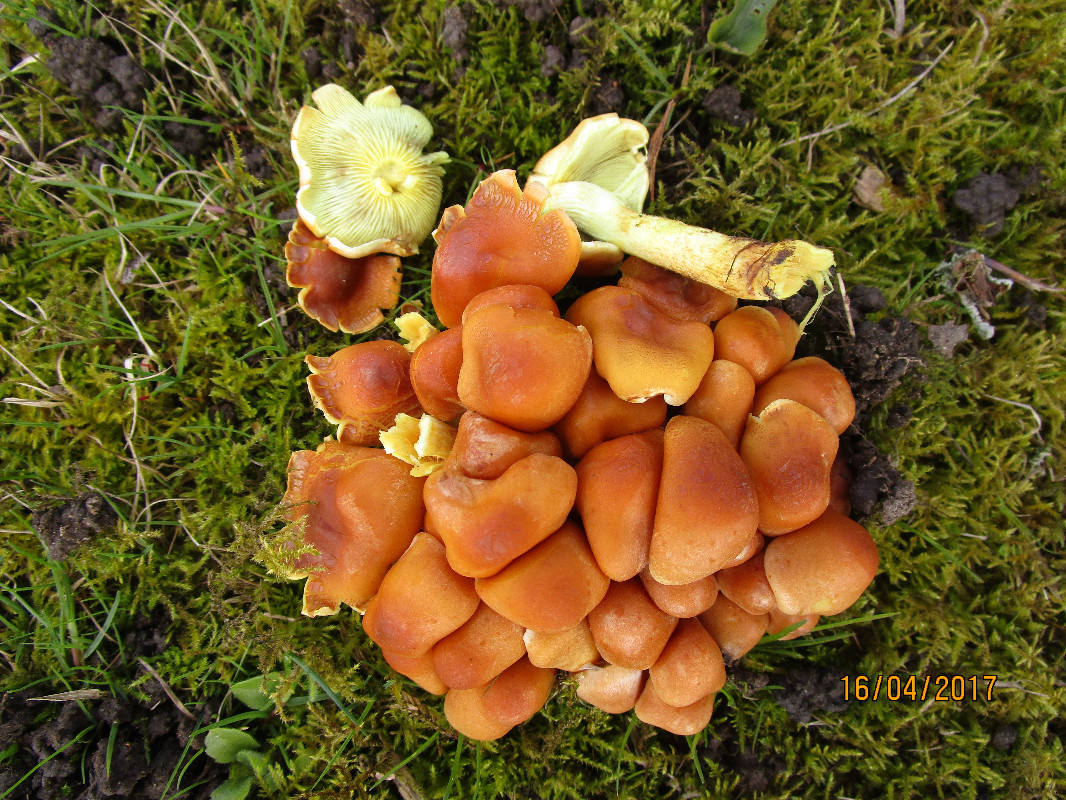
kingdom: Fungi
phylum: Basidiomycota
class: Agaricomycetes
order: Agaricales
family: Strophariaceae
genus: Hypholoma
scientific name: Hypholoma fasciculare
